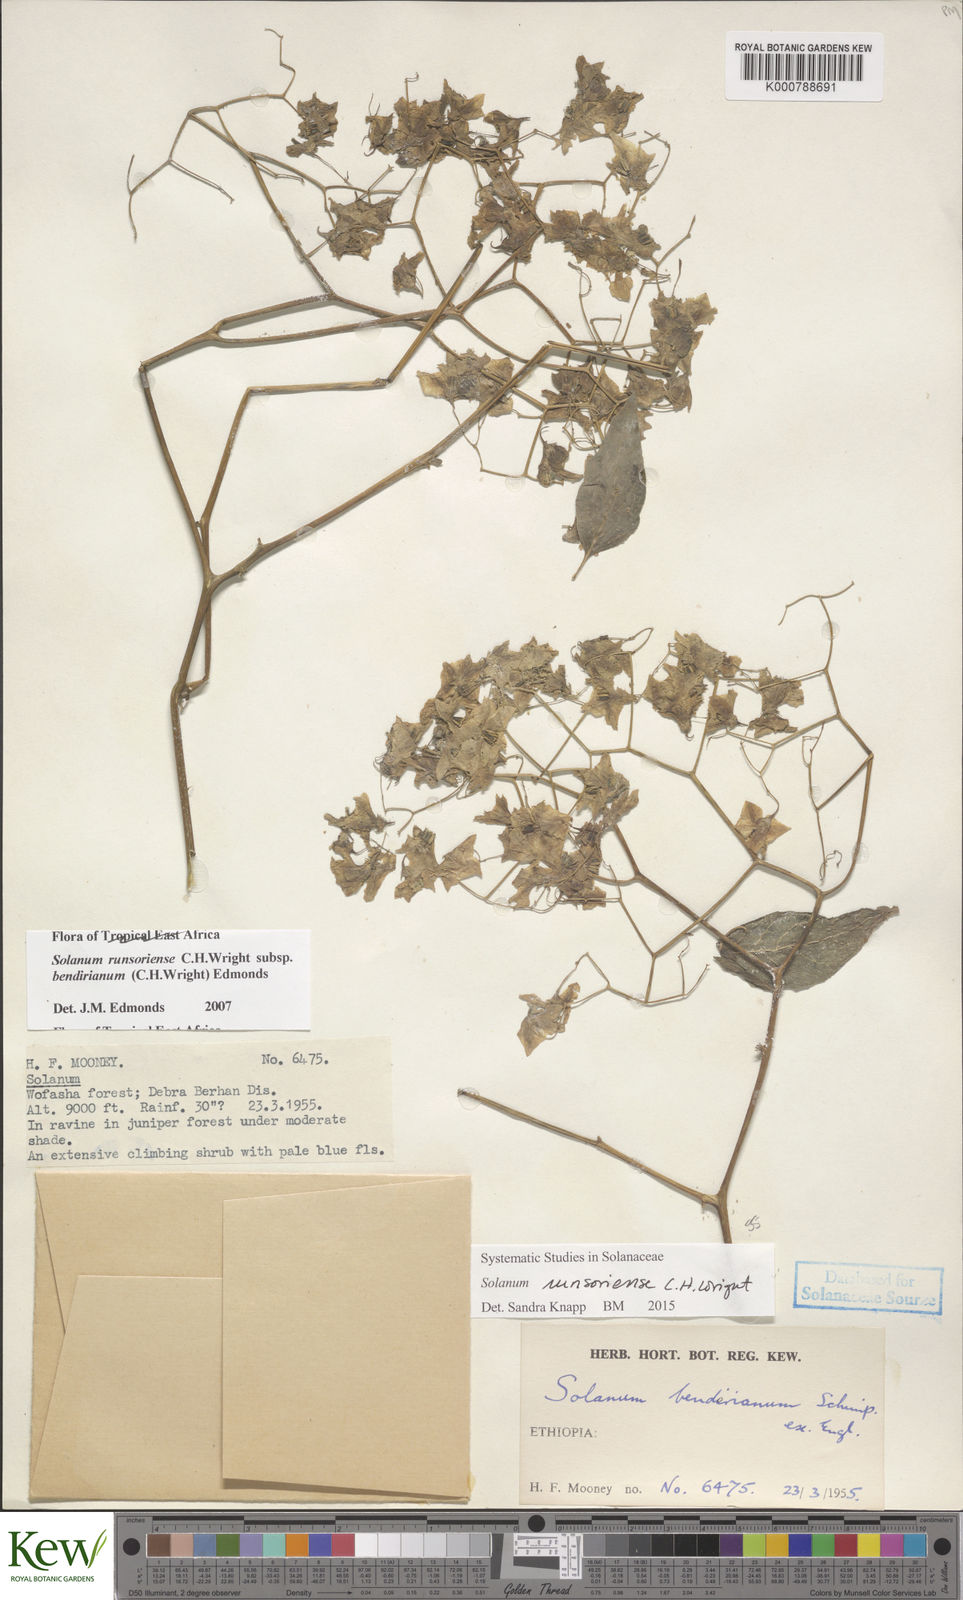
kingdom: Plantae
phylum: Tracheophyta
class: Magnoliopsida
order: Solanales
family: Solanaceae
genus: Solanum
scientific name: Solanum runsoriense
